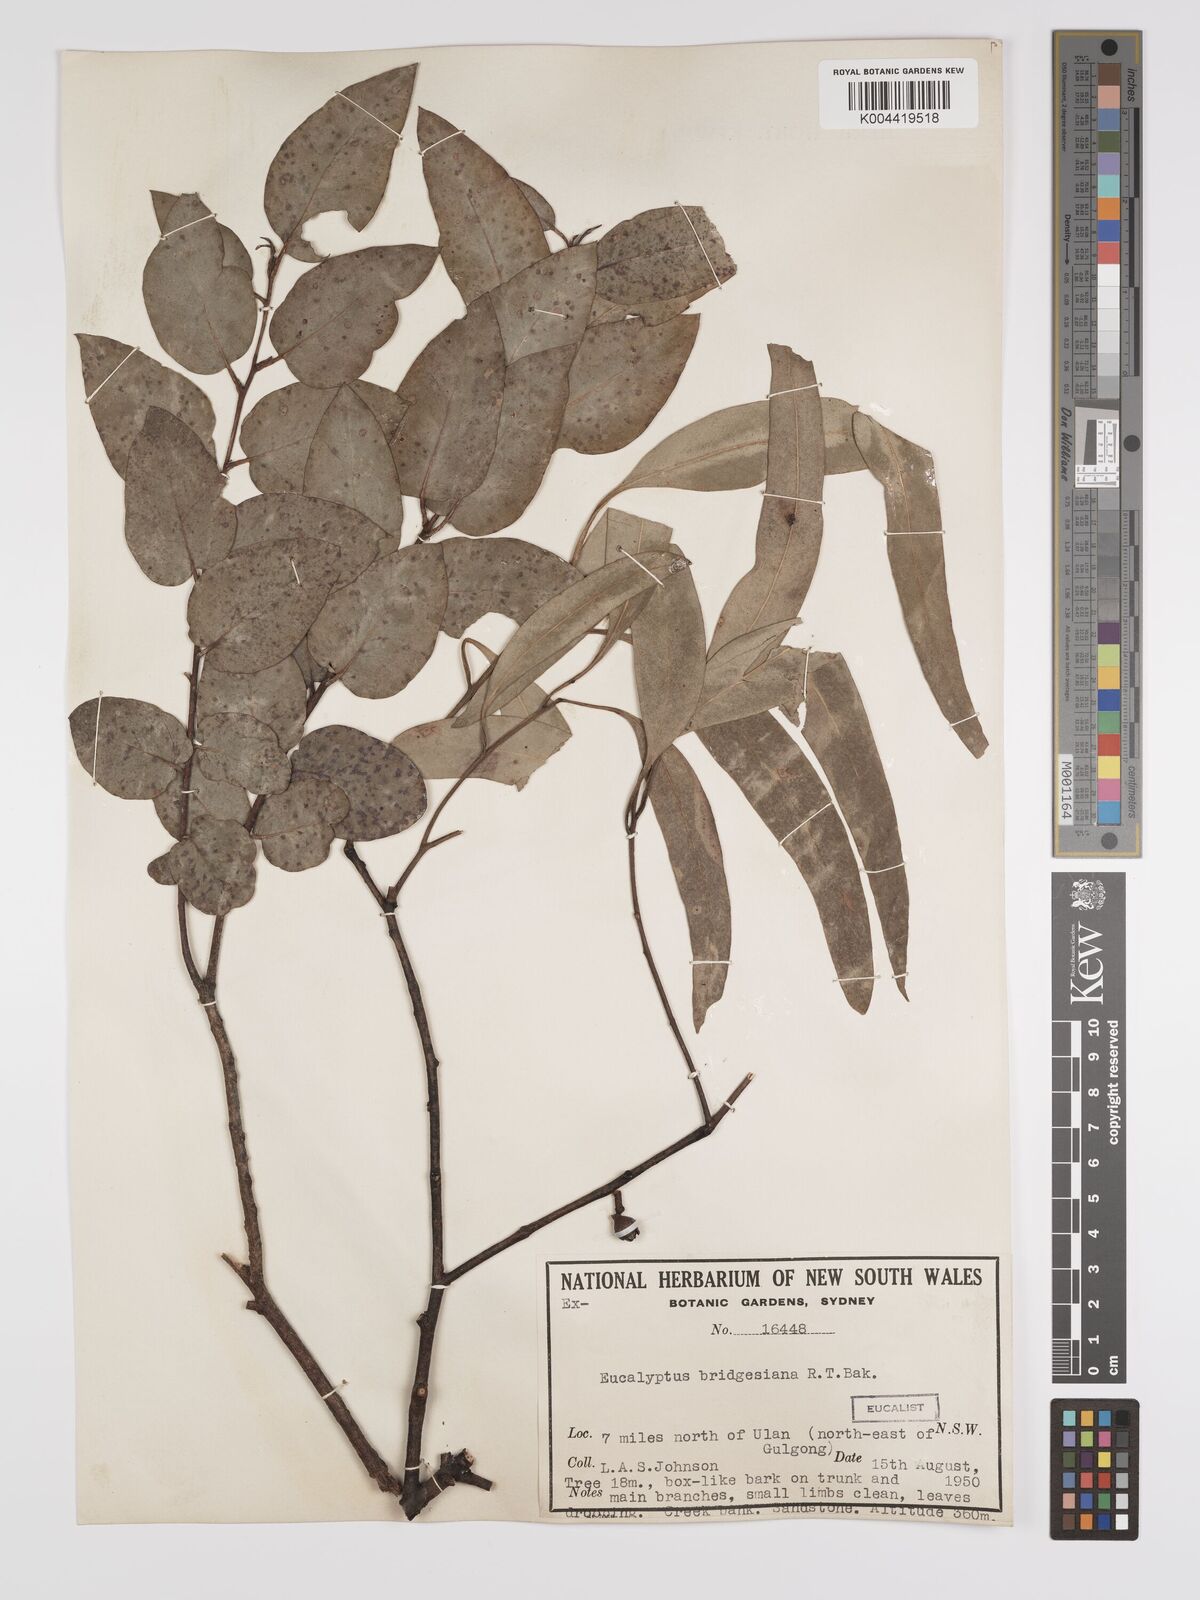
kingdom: Plantae
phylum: Tracheophyta
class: Magnoliopsida
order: Myrtales
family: Myrtaceae
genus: Eucalyptus
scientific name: Eucalyptus ovata
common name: Black-gum
